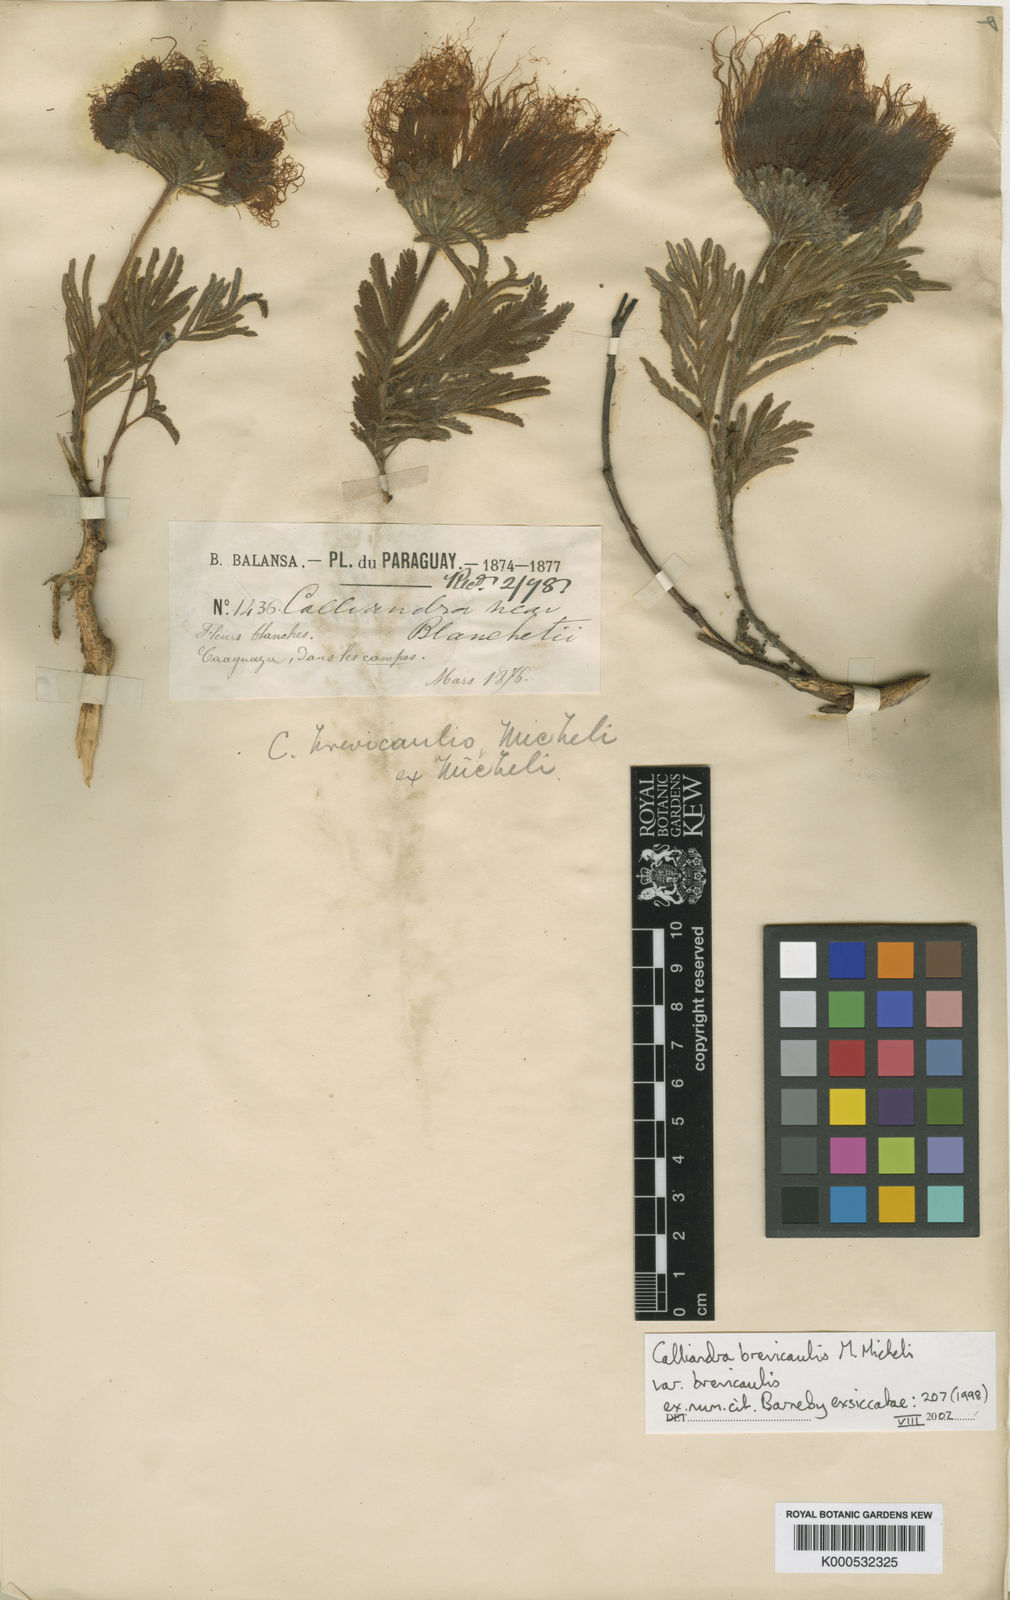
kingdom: Plantae
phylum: Tracheophyta
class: Magnoliopsida
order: Fabales
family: Fabaceae
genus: Calliandra
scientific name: Calliandra brevicaulis
